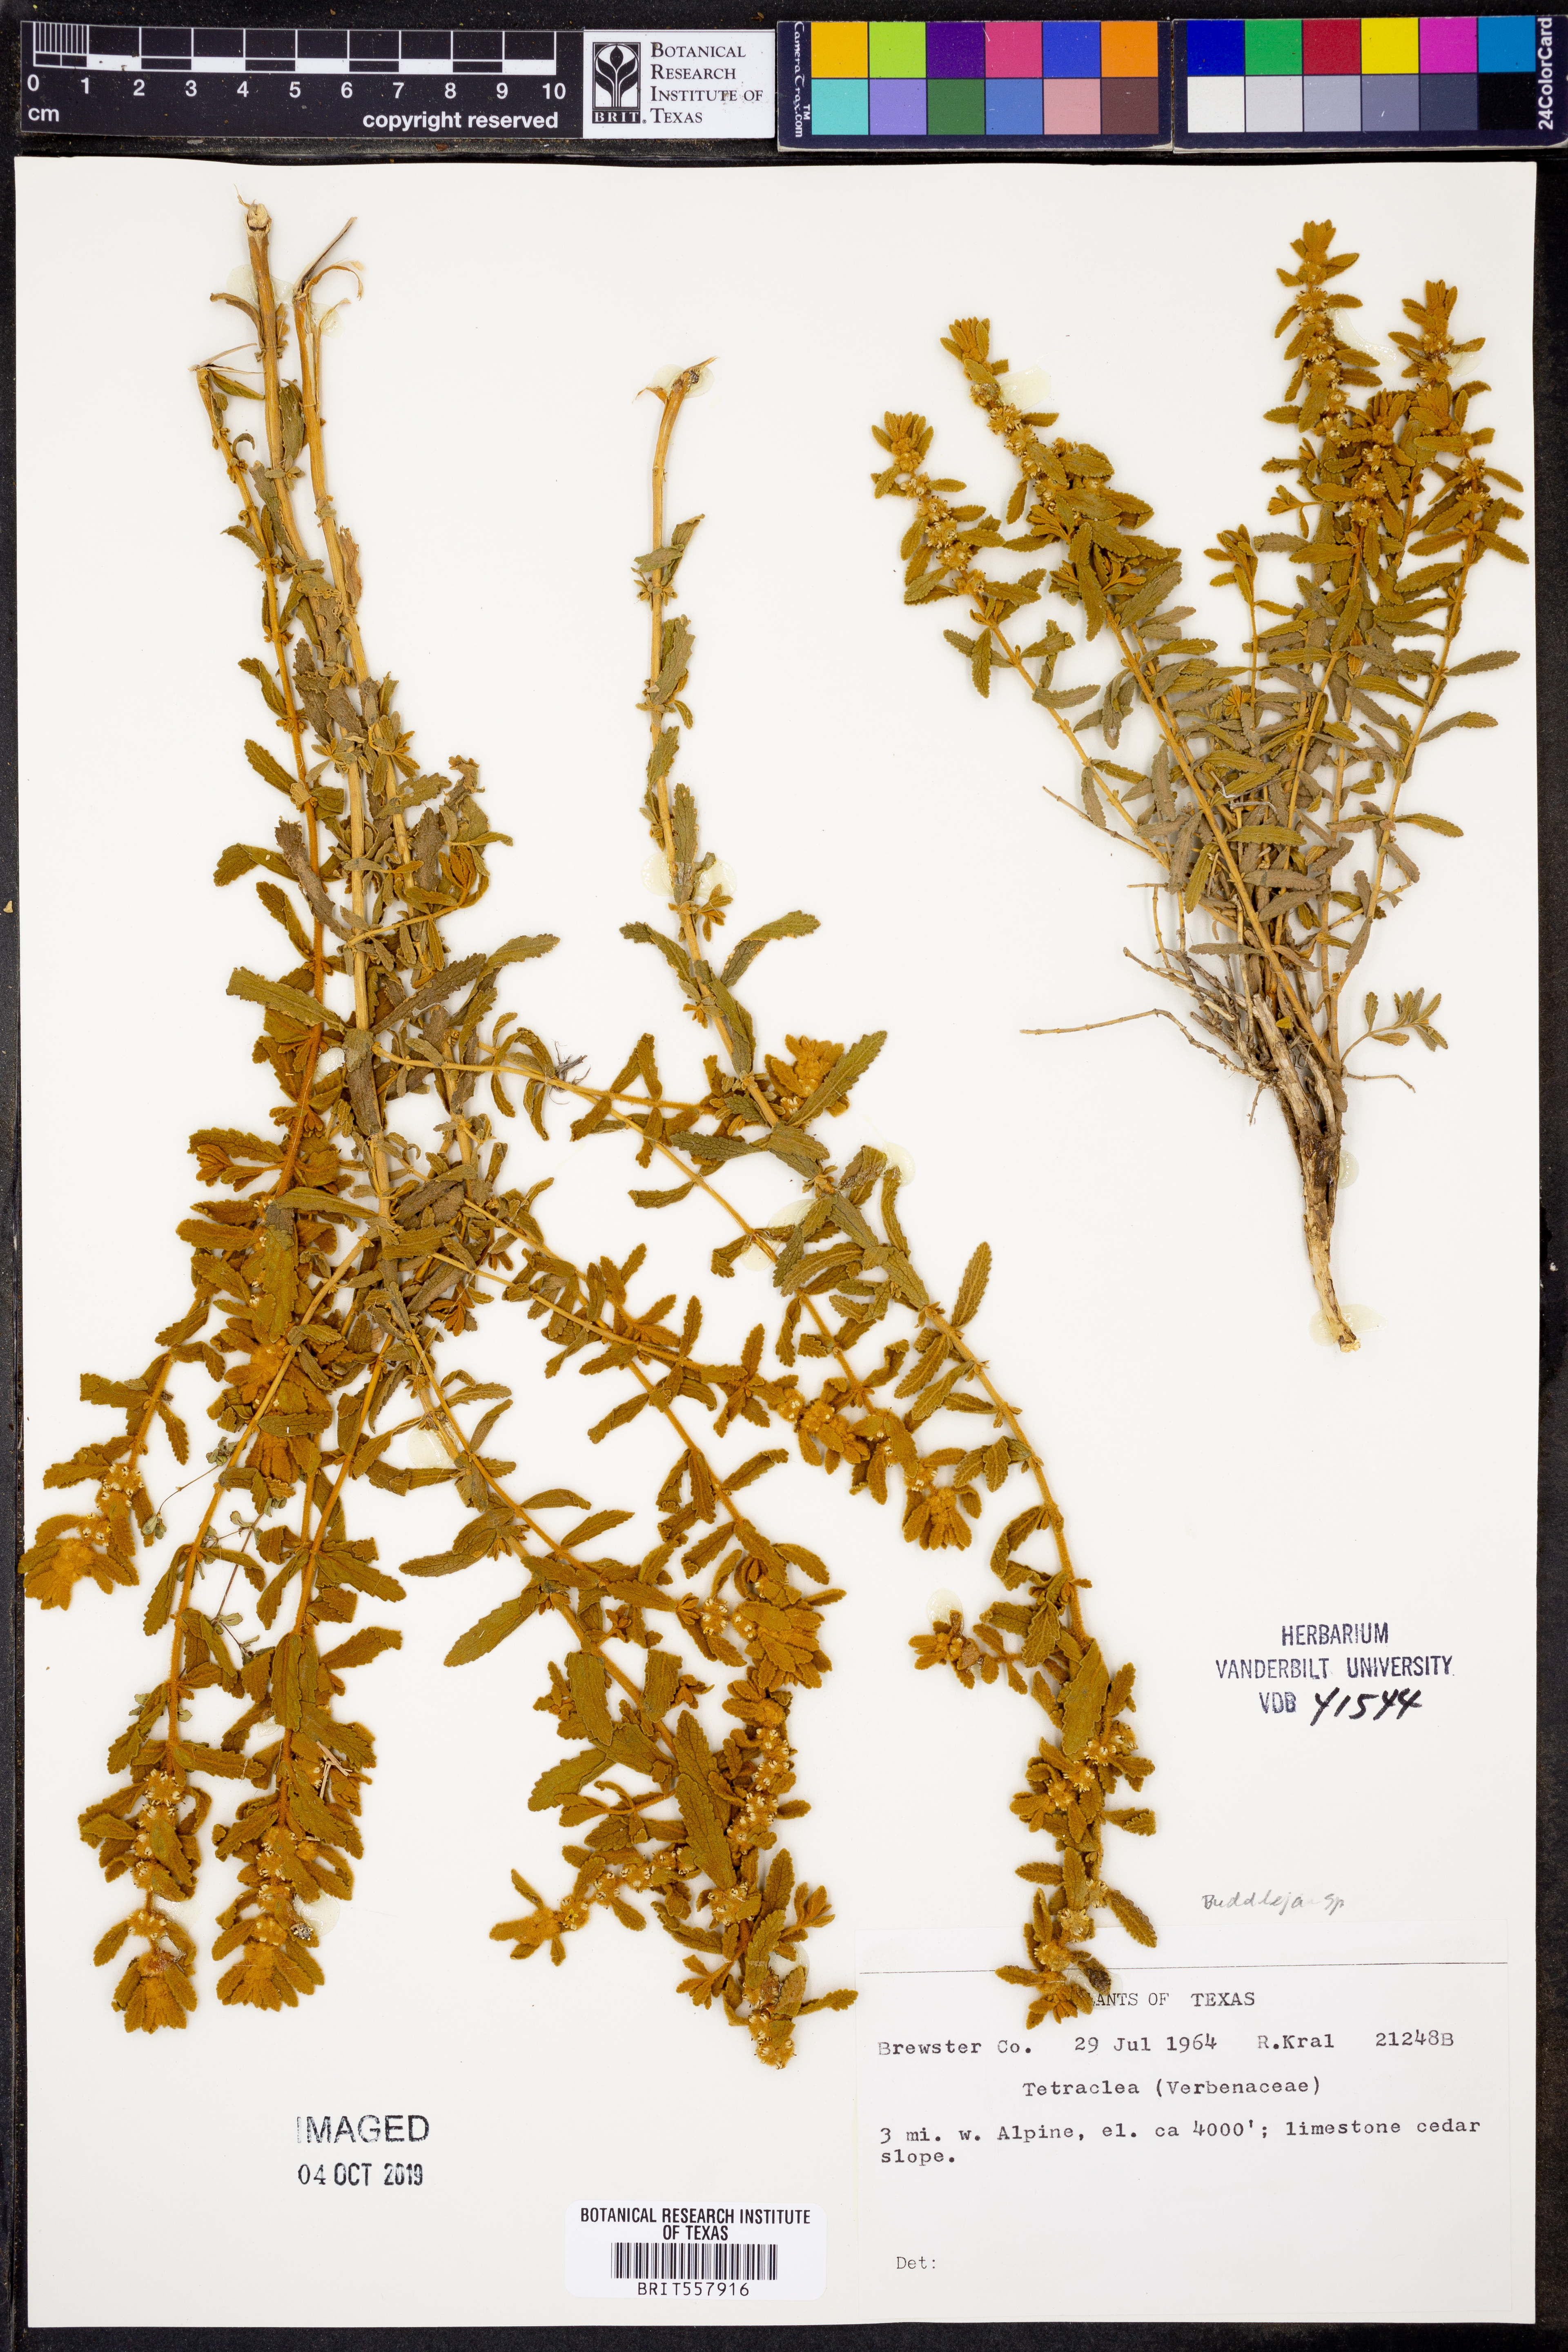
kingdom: Plantae
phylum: Tracheophyta
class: Magnoliopsida
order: Lamiales
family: Scrophulariaceae
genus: Buddleja
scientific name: Buddleja
